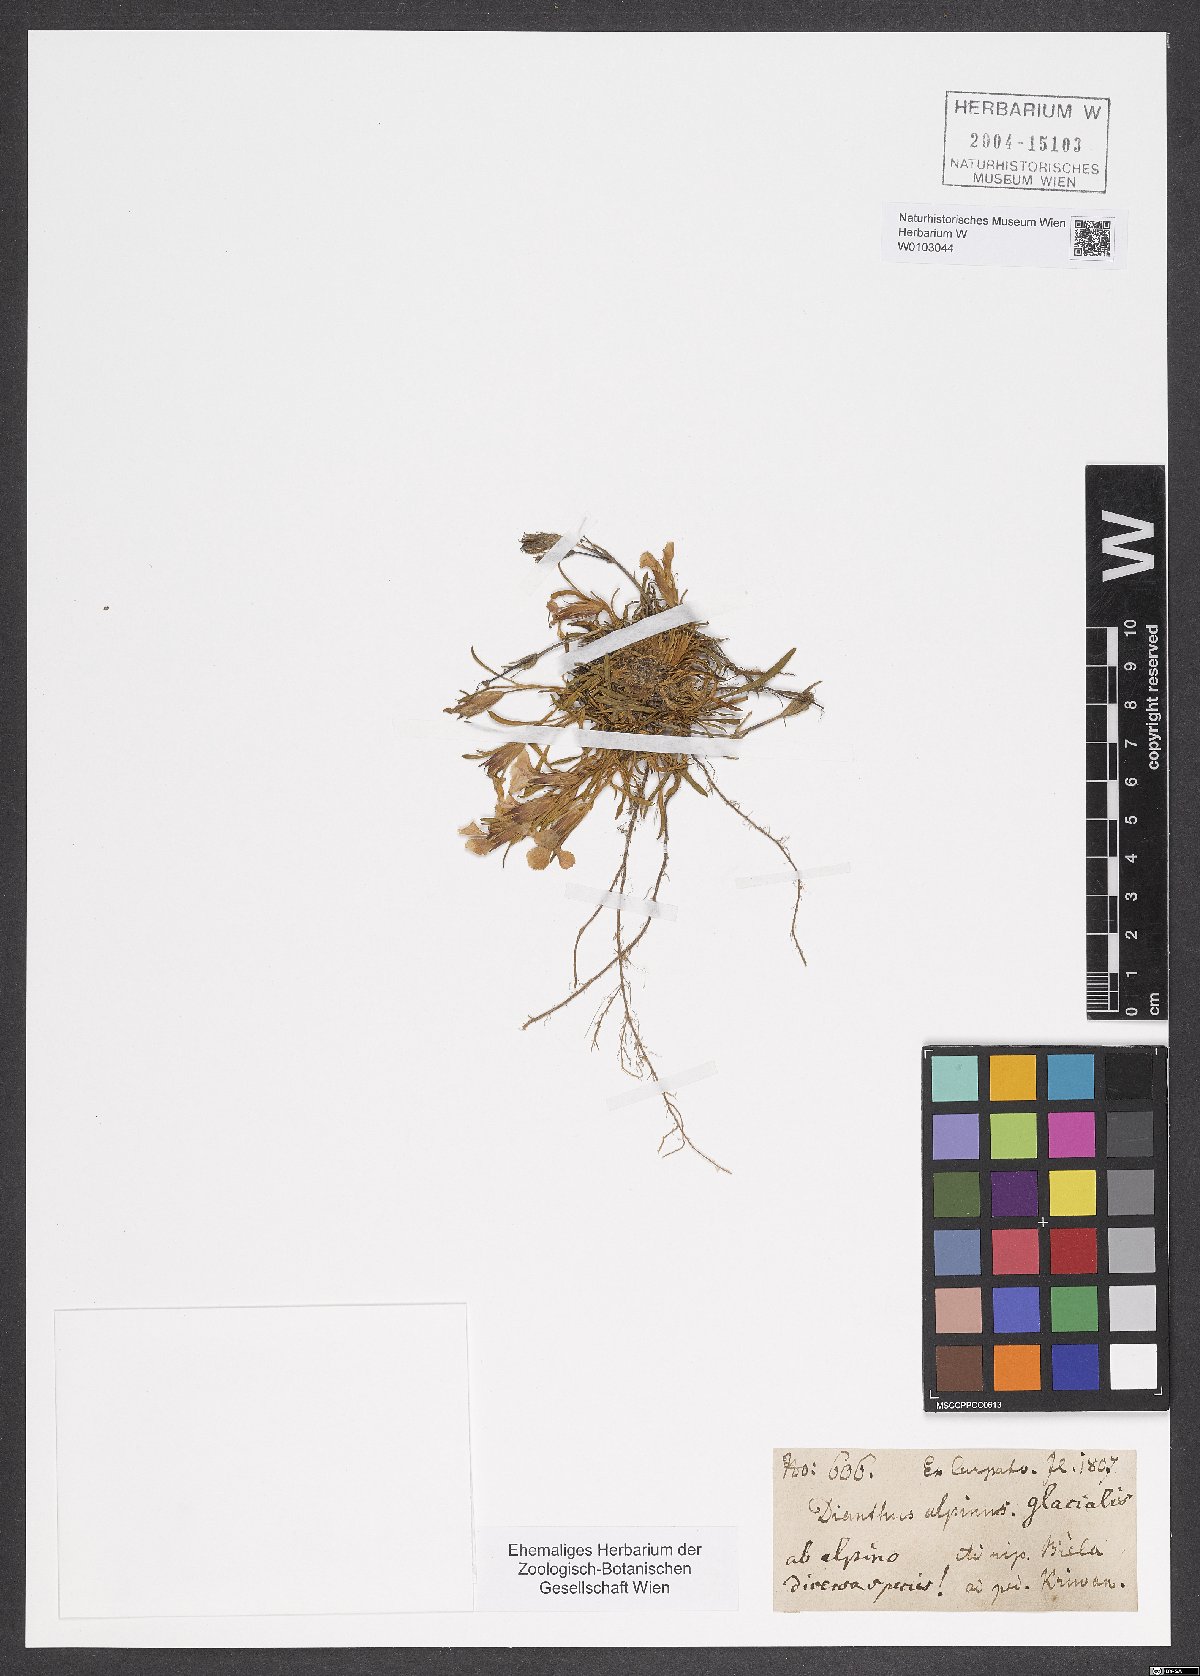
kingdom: Plantae
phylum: Tracheophyta
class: Magnoliopsida
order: Caryophyllales
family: Caryophyllaceae
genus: Dianthus
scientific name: Dianthus alpinus
